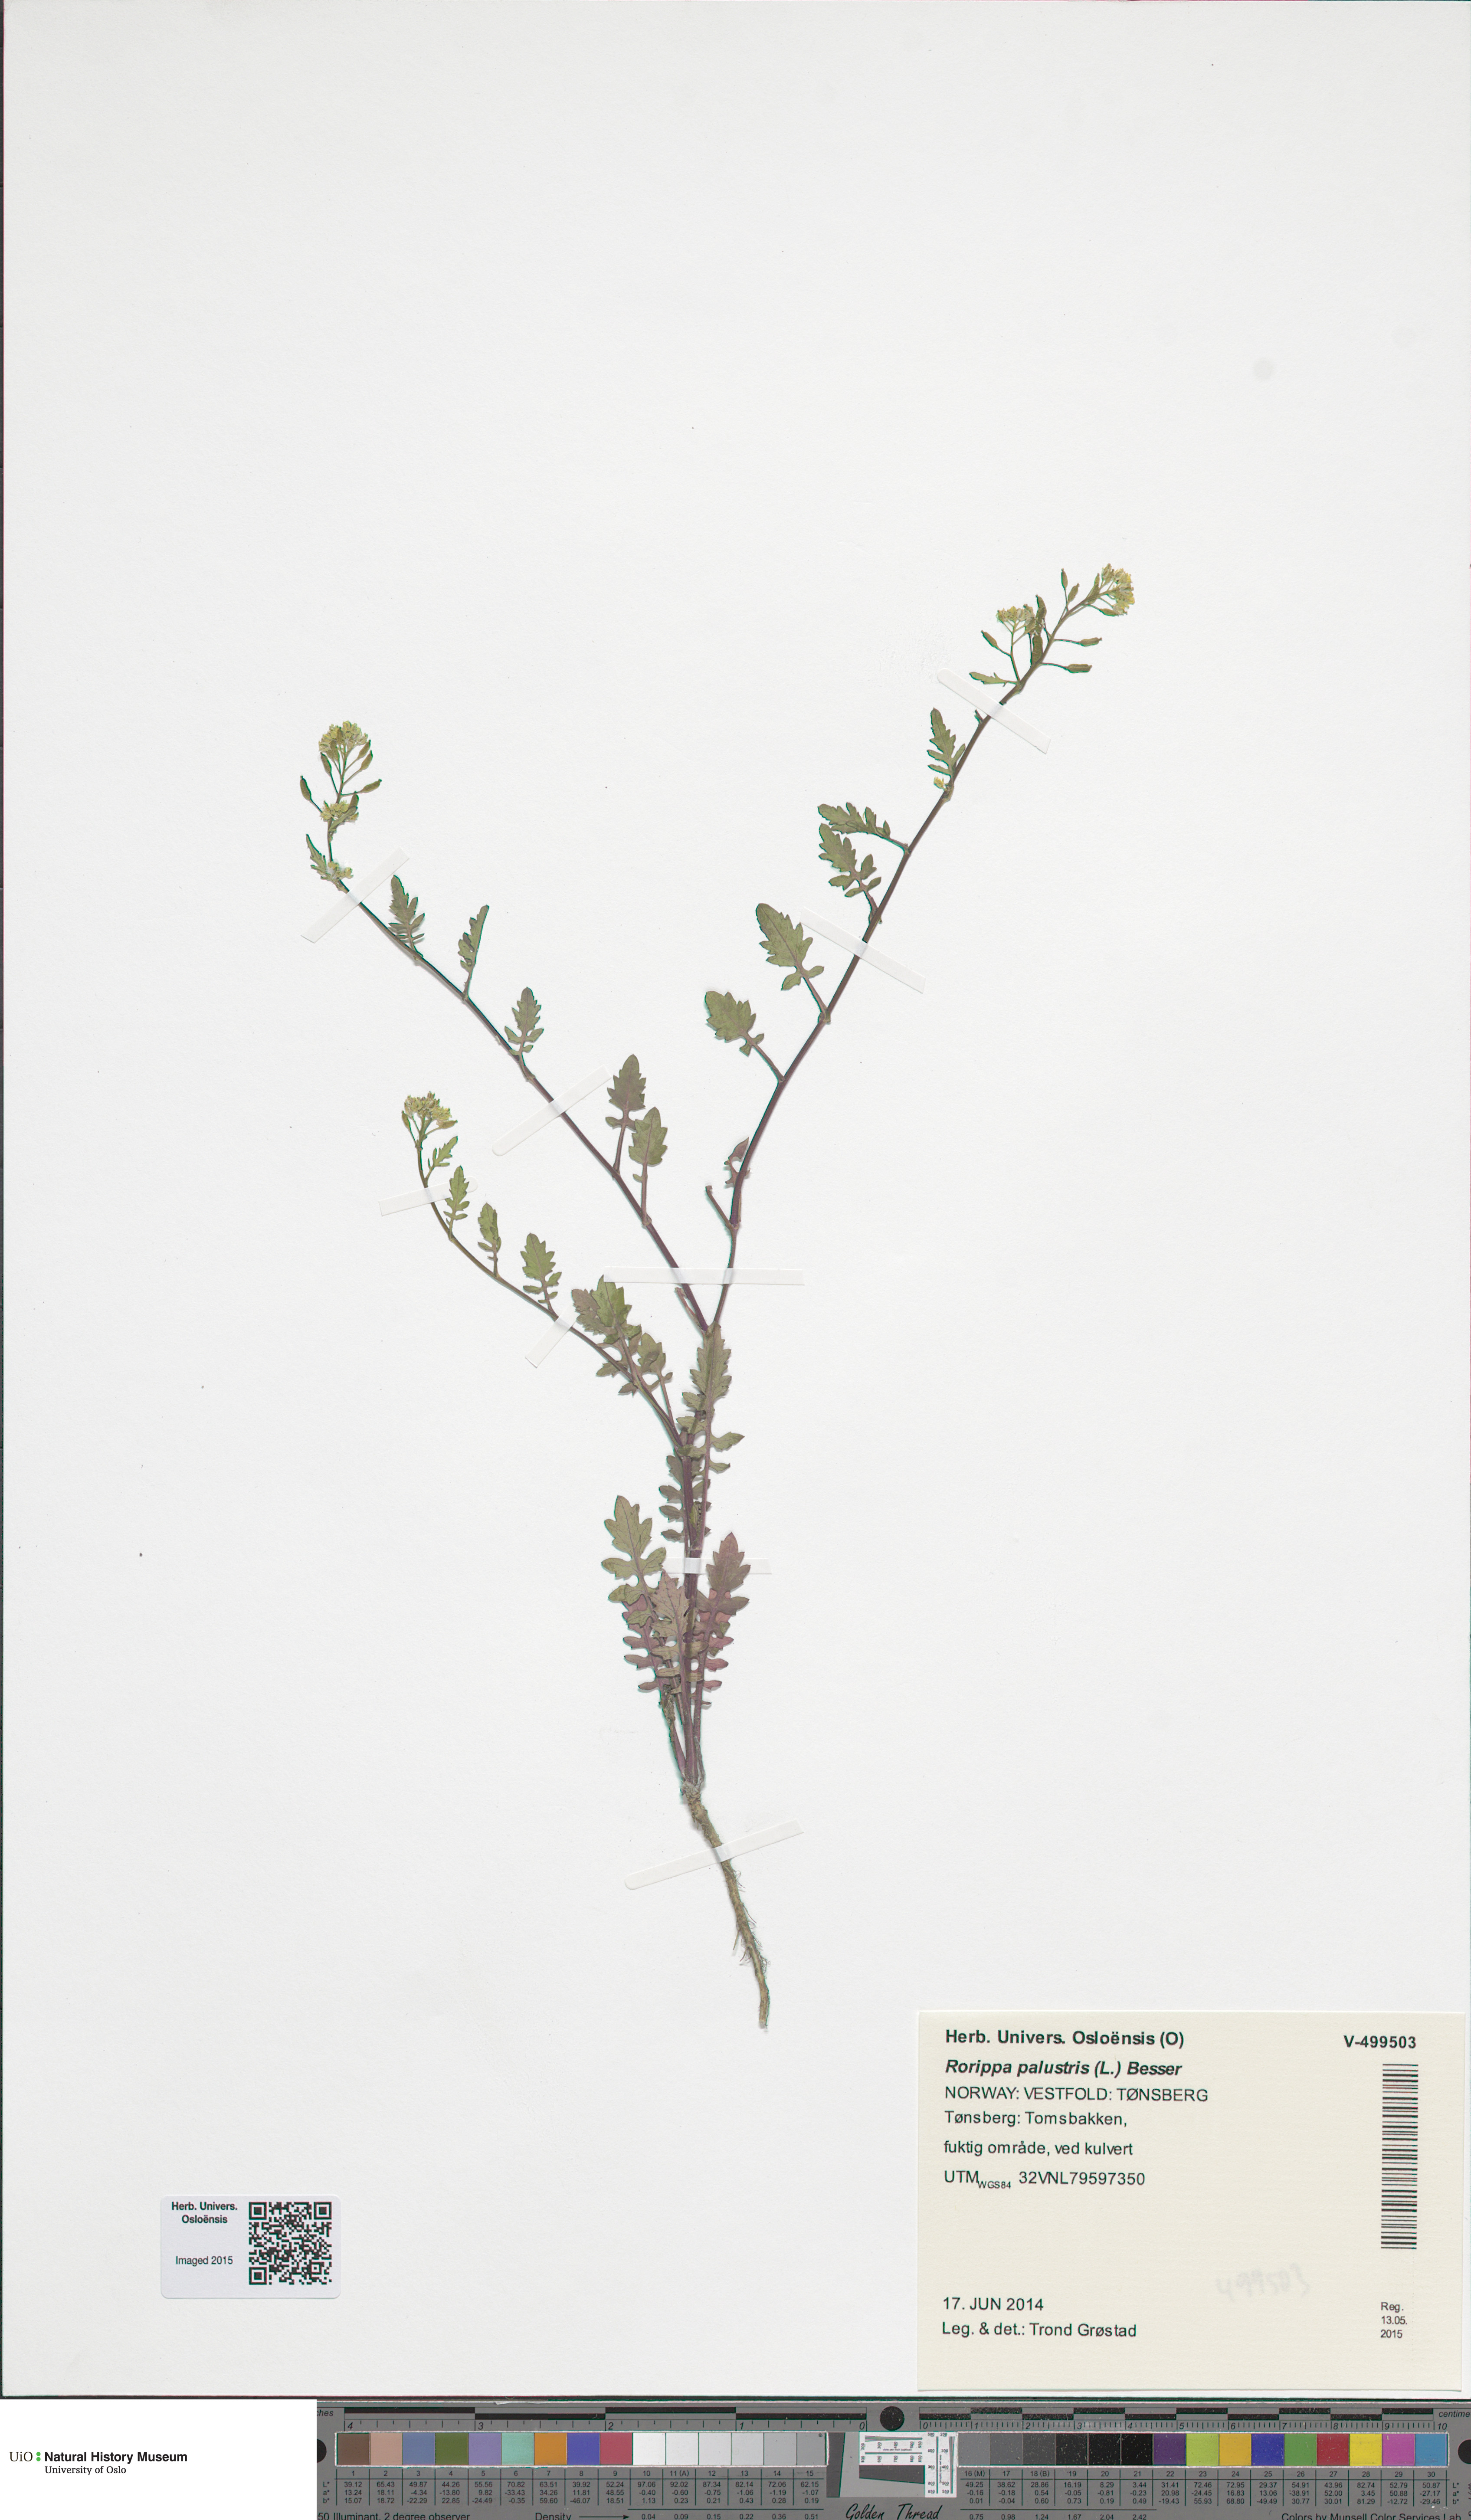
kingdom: Plantae
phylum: Tracheophyta
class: Magnoliopsida
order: Brassicales
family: Brassicaceae
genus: Rorippa
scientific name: Rorippa palustris
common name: Marsh yellow-cress
